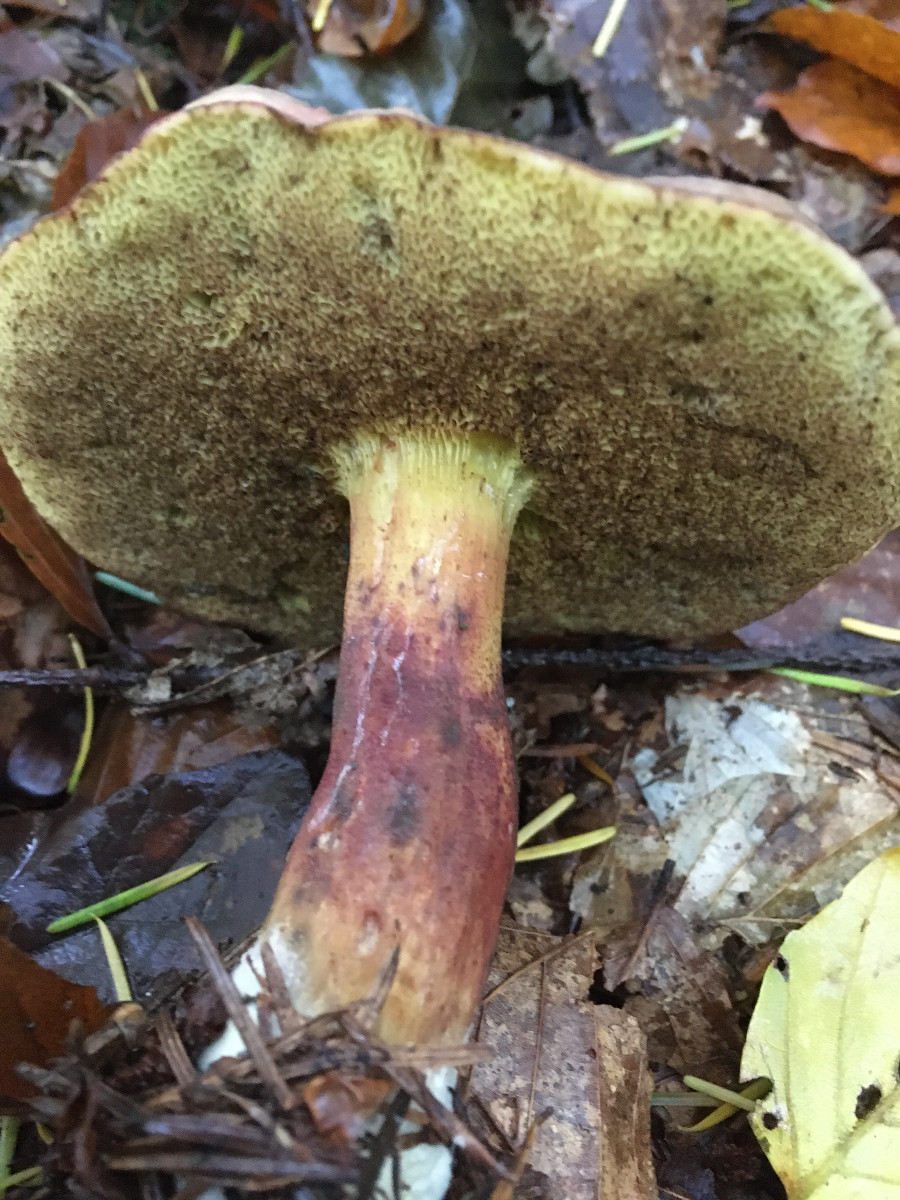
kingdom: Fungi
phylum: Basidiomycota
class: Agaricomycetes
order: Boletales
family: Boletaceae
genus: Xerocomellus
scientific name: Xerocomellus pruinatus
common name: dugget rørhat
